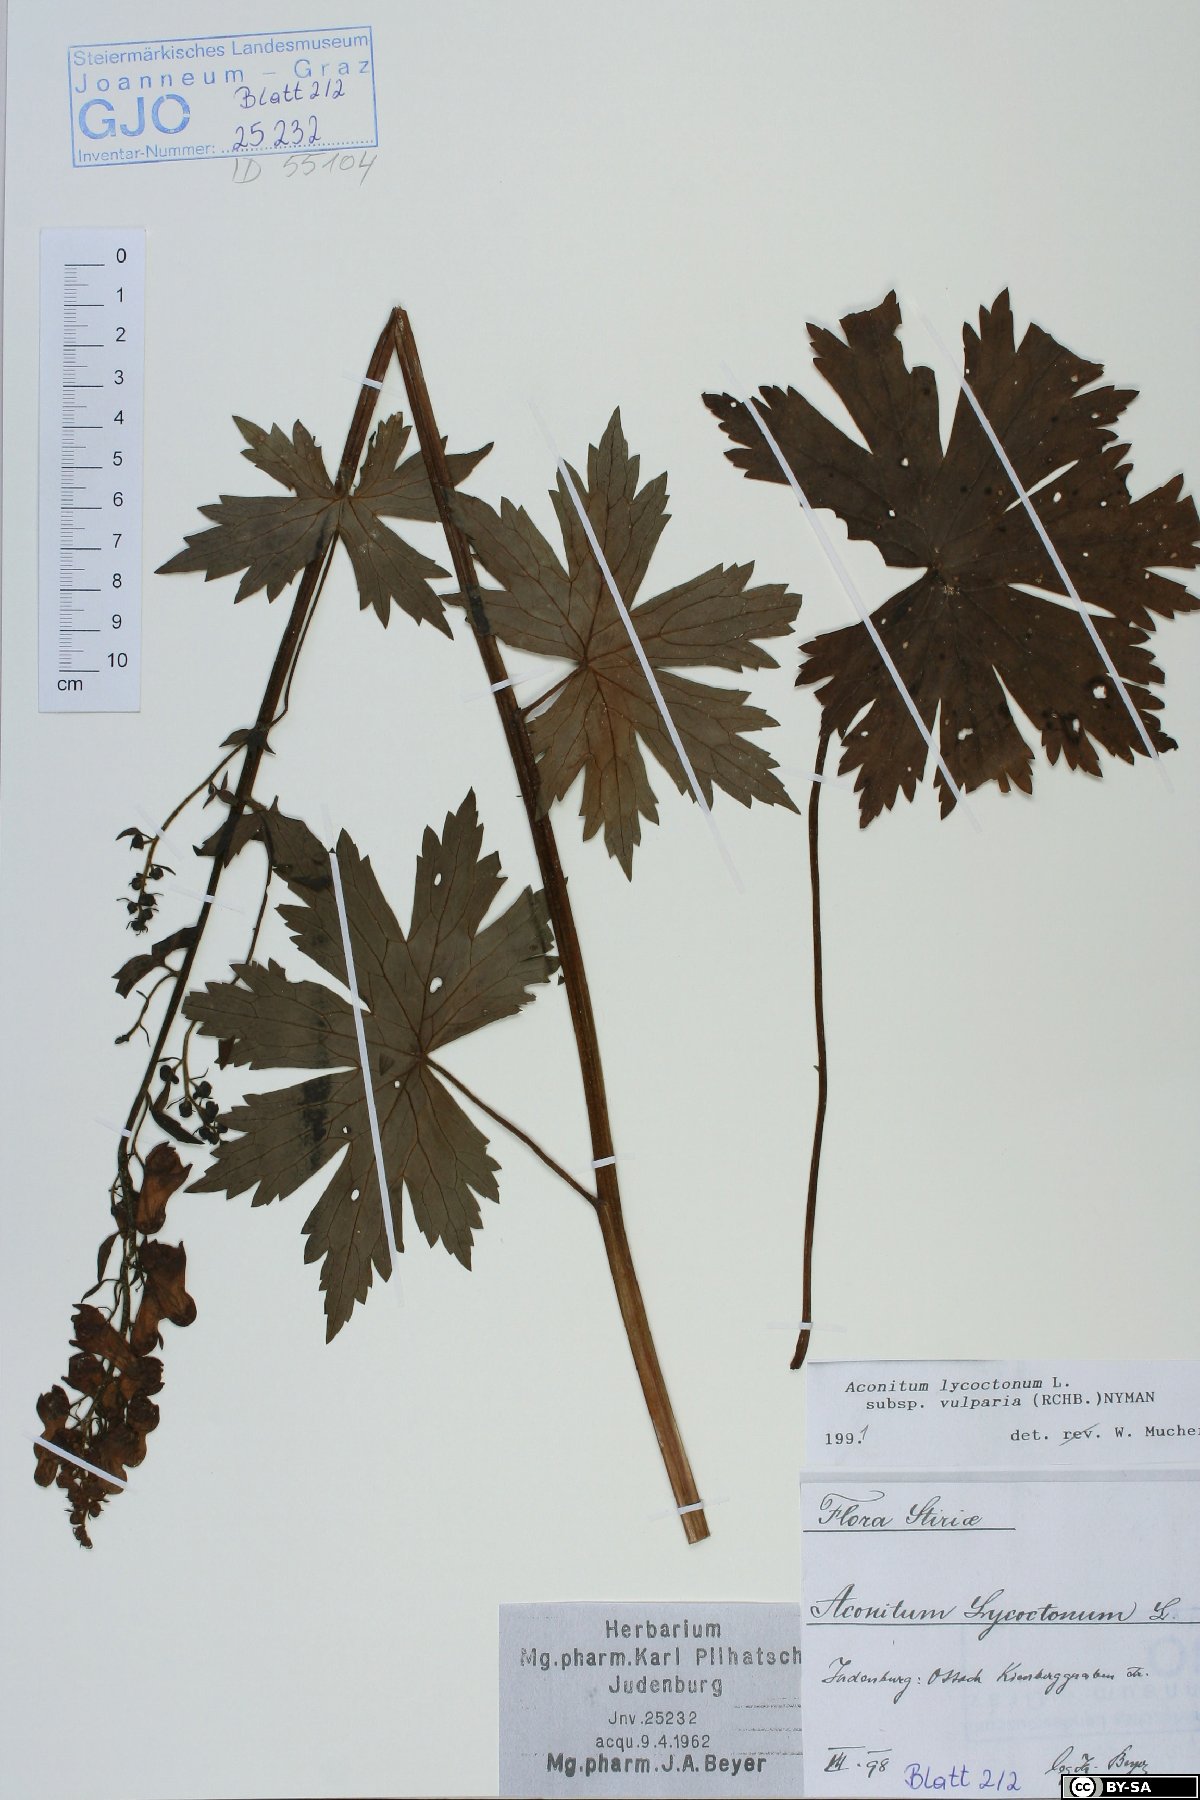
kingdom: Plantae
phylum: Tracheophyta
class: Magnoliopsida
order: Ranunculales
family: Ranunculaceae
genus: Aconitum
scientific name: Aconitum lycoctonum
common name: Wolf's-bane
